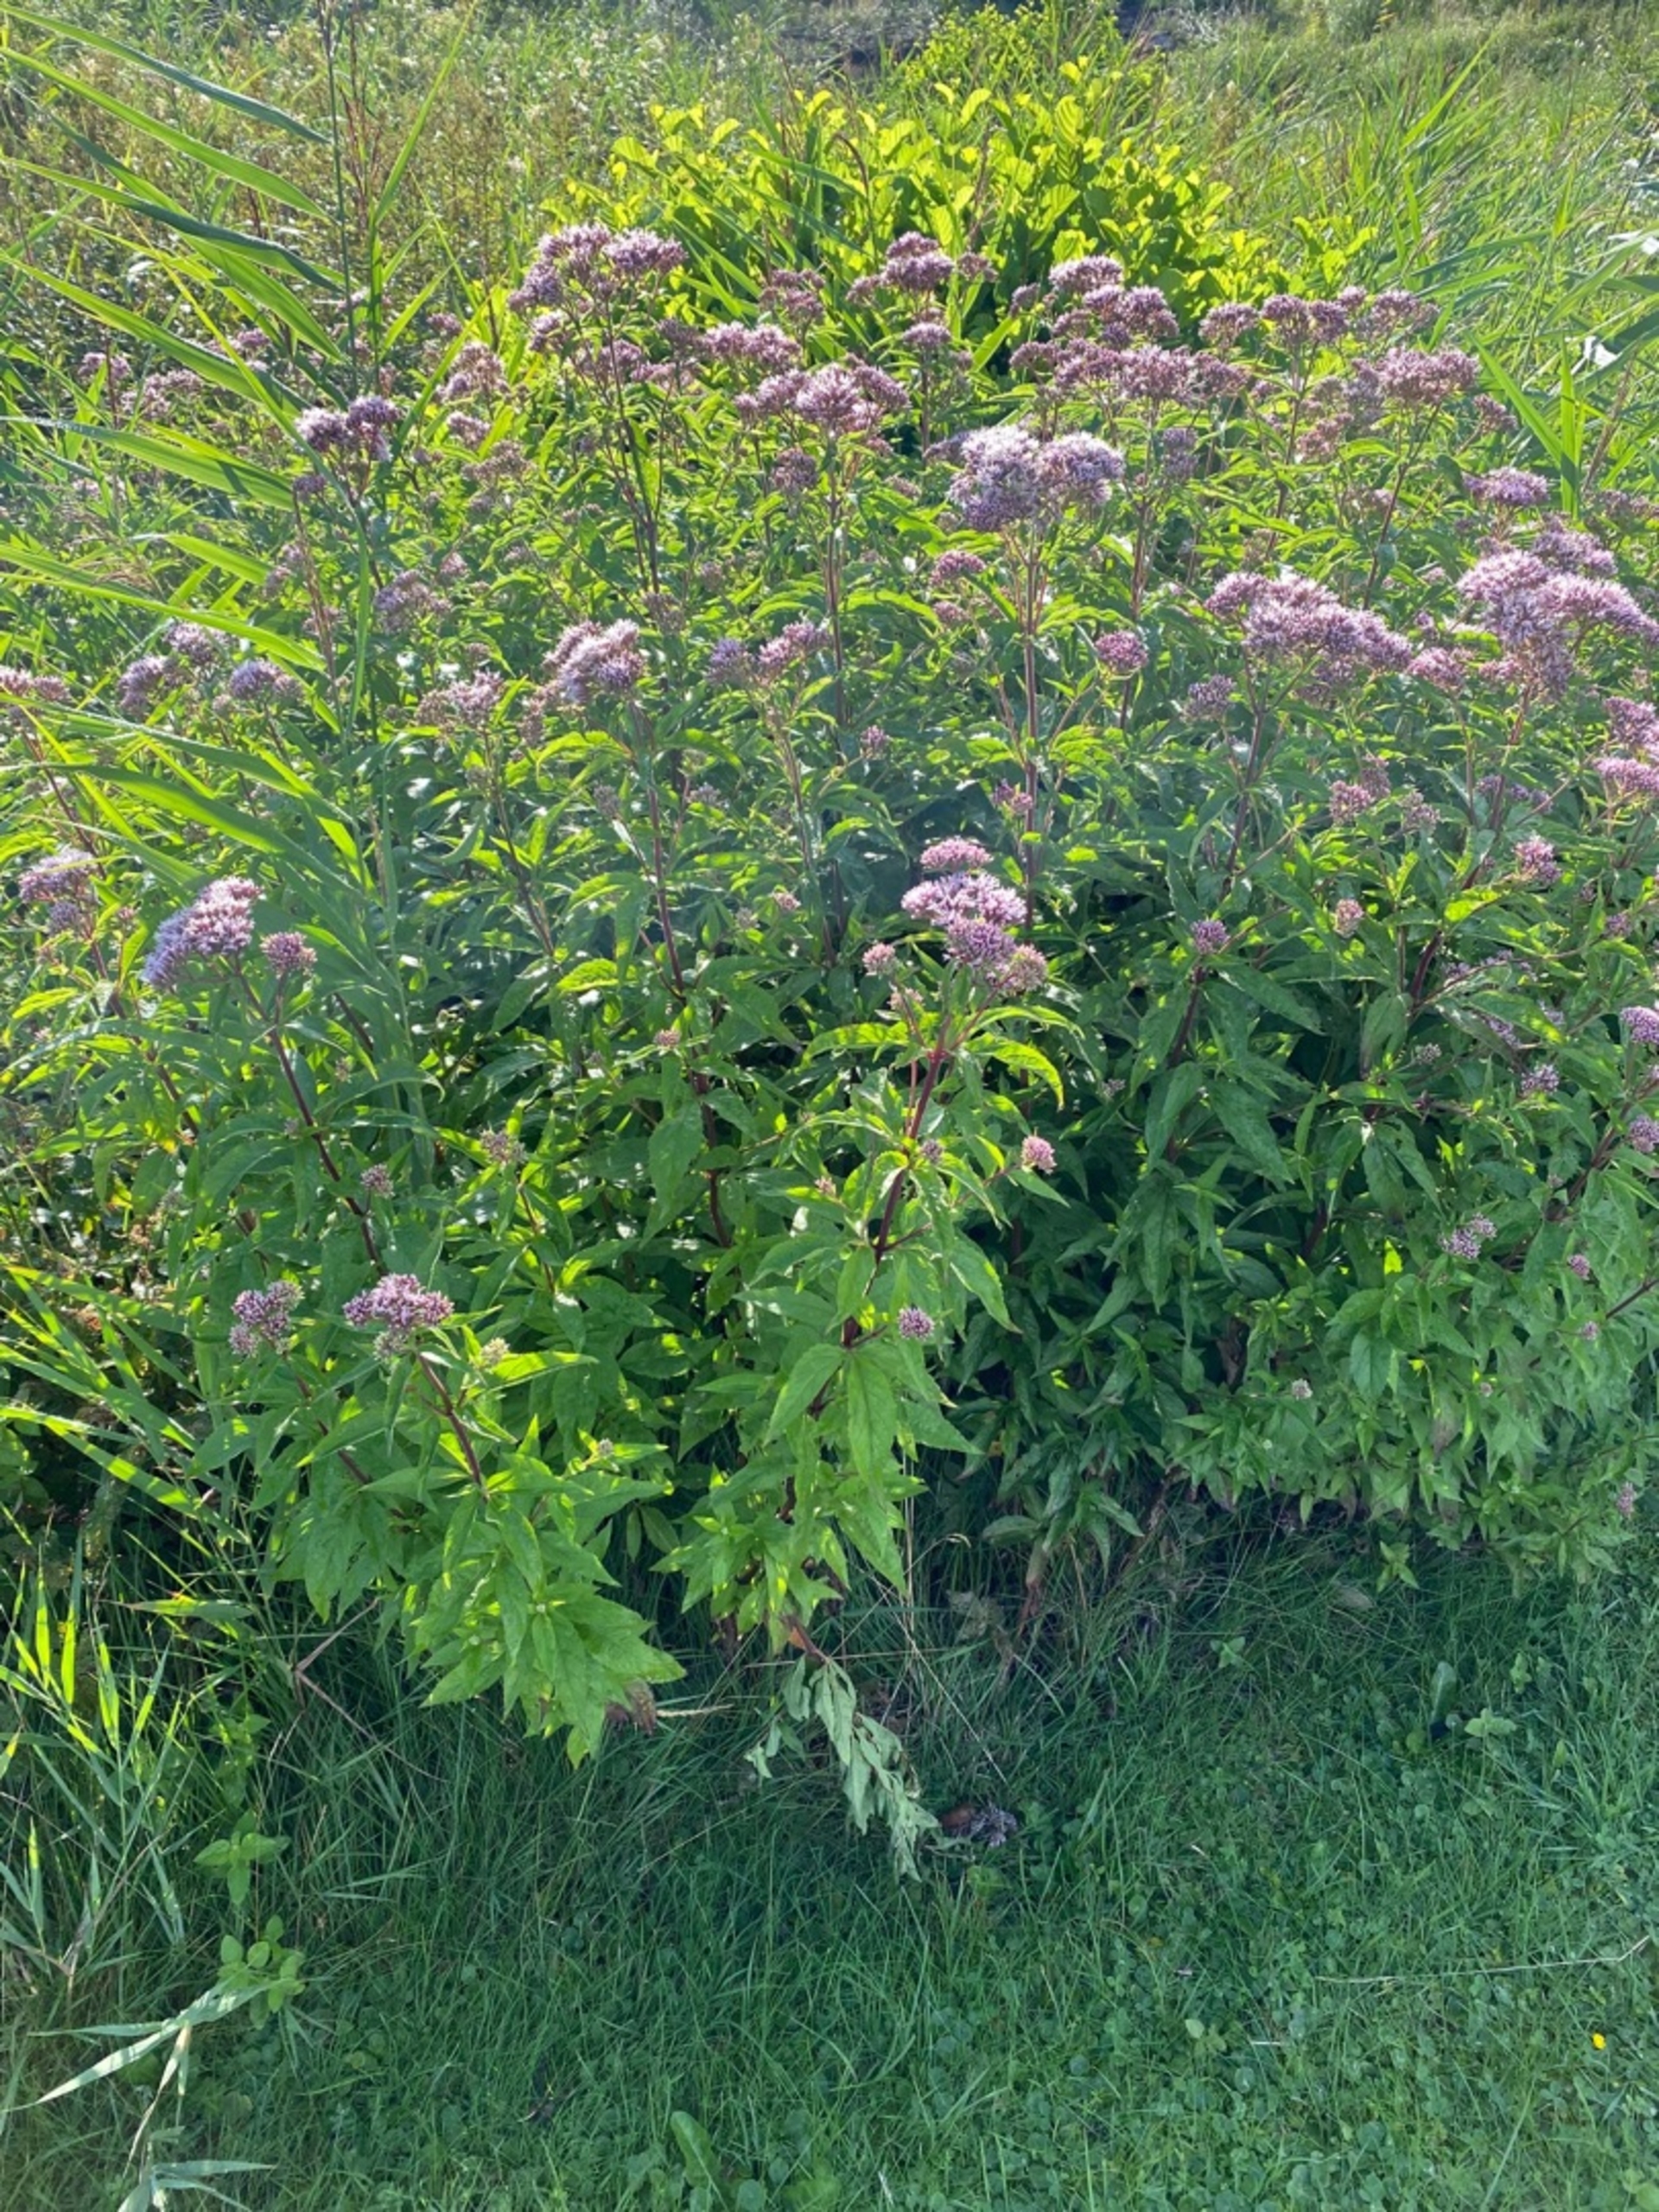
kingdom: Plantae
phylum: Tracheophyta
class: Magnoliopsida
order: Asterales
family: Asteraceae
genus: Eupatorium
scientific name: Eupatorium cannabinum
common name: Hjortetrøst
